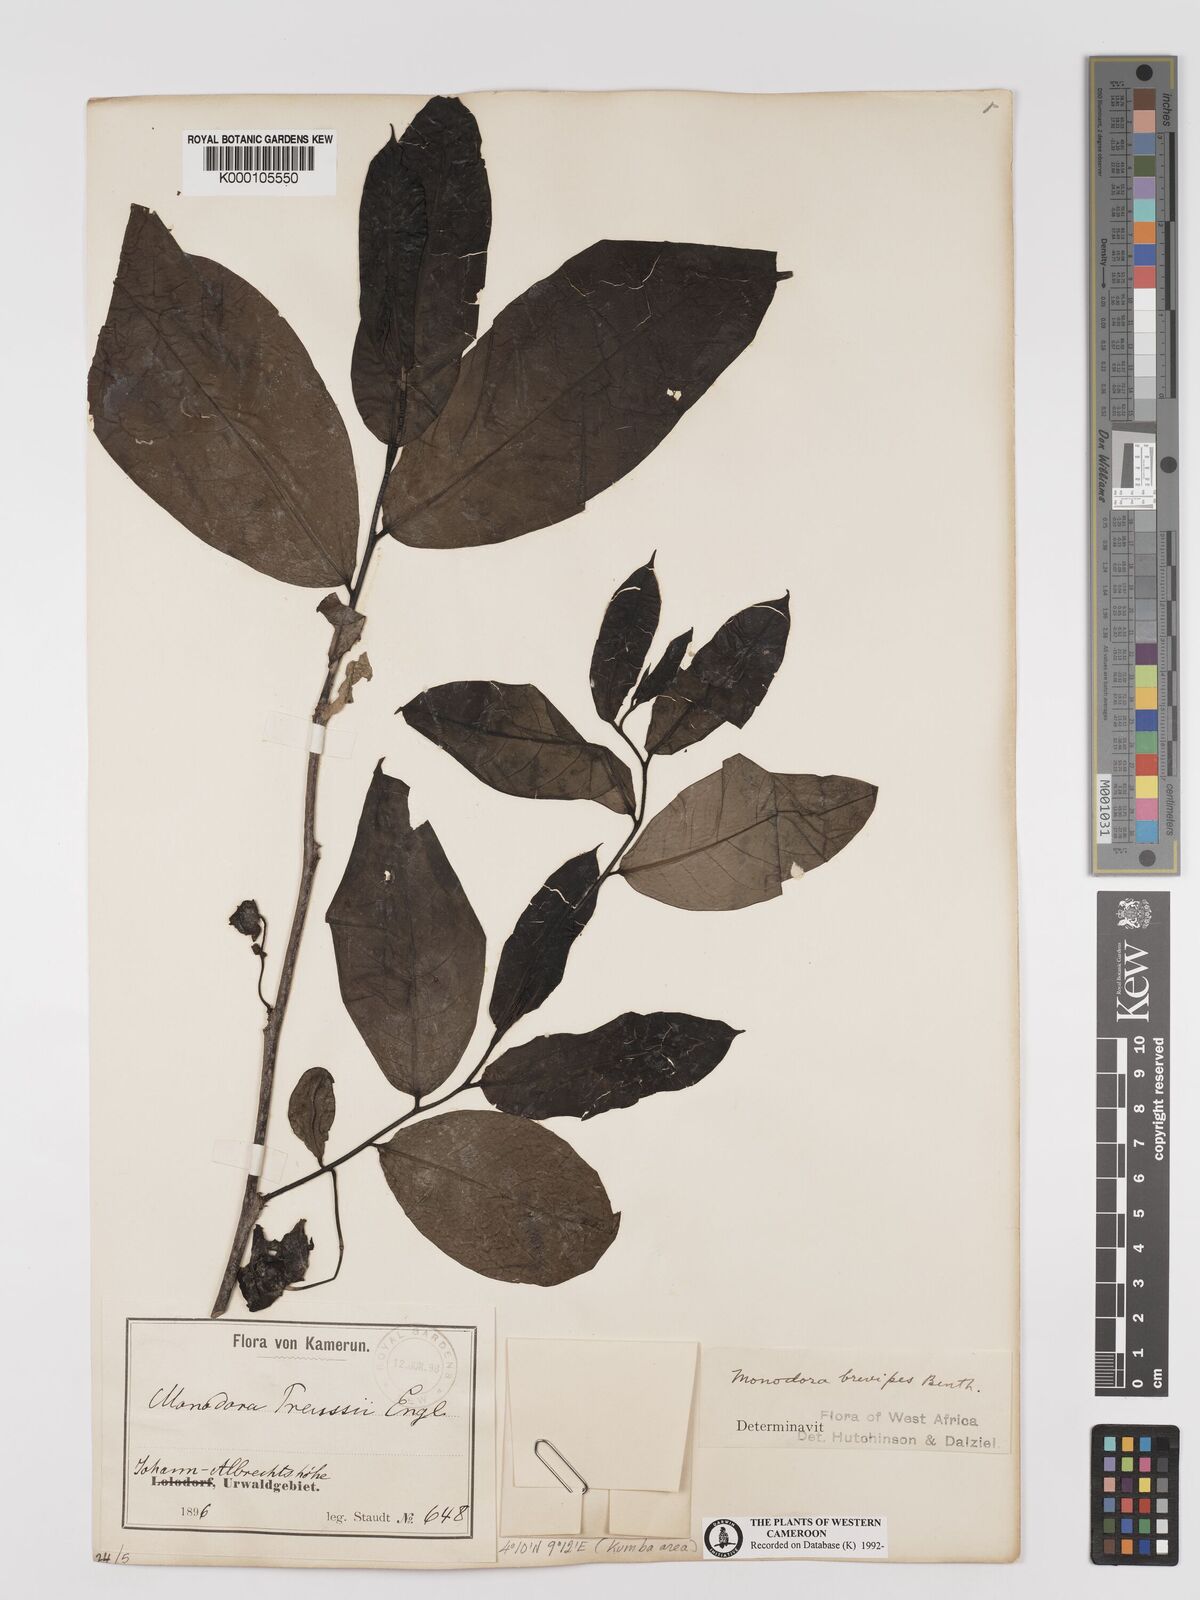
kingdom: Plantae
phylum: Tracheophyta
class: Magnoliopsida
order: Magnoliales
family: Annonaceae
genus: Monodora
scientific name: Monodora undulata
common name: Yellow-flower-nutmeg
